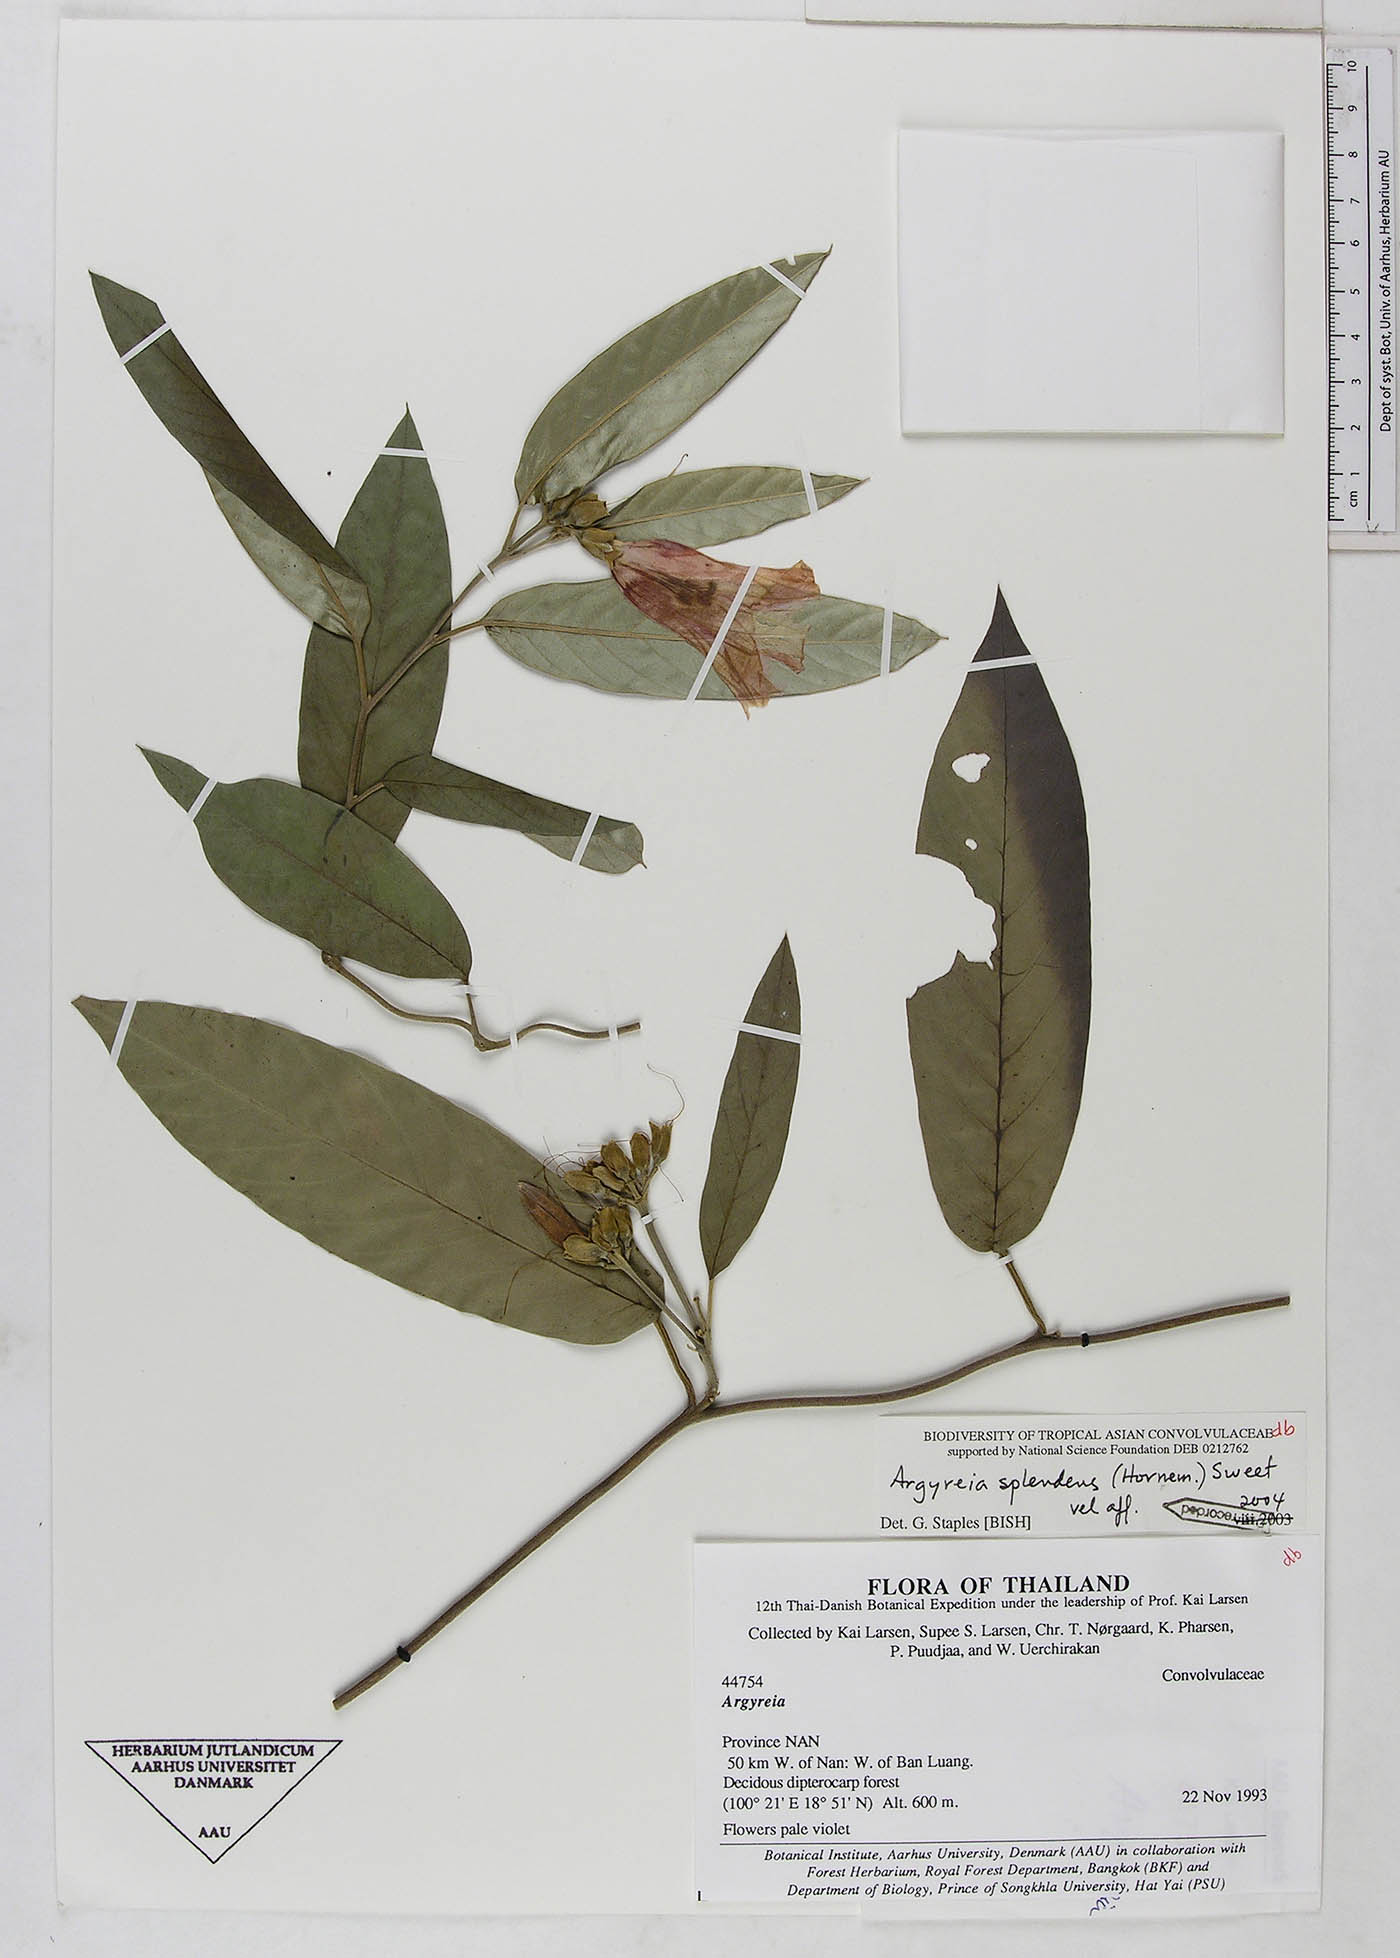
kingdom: Plantae
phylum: Tracheophyta
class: Magnoliopsida
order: Solanales
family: Convolvulaceae
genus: Argyreia
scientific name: Argyreia splendens
